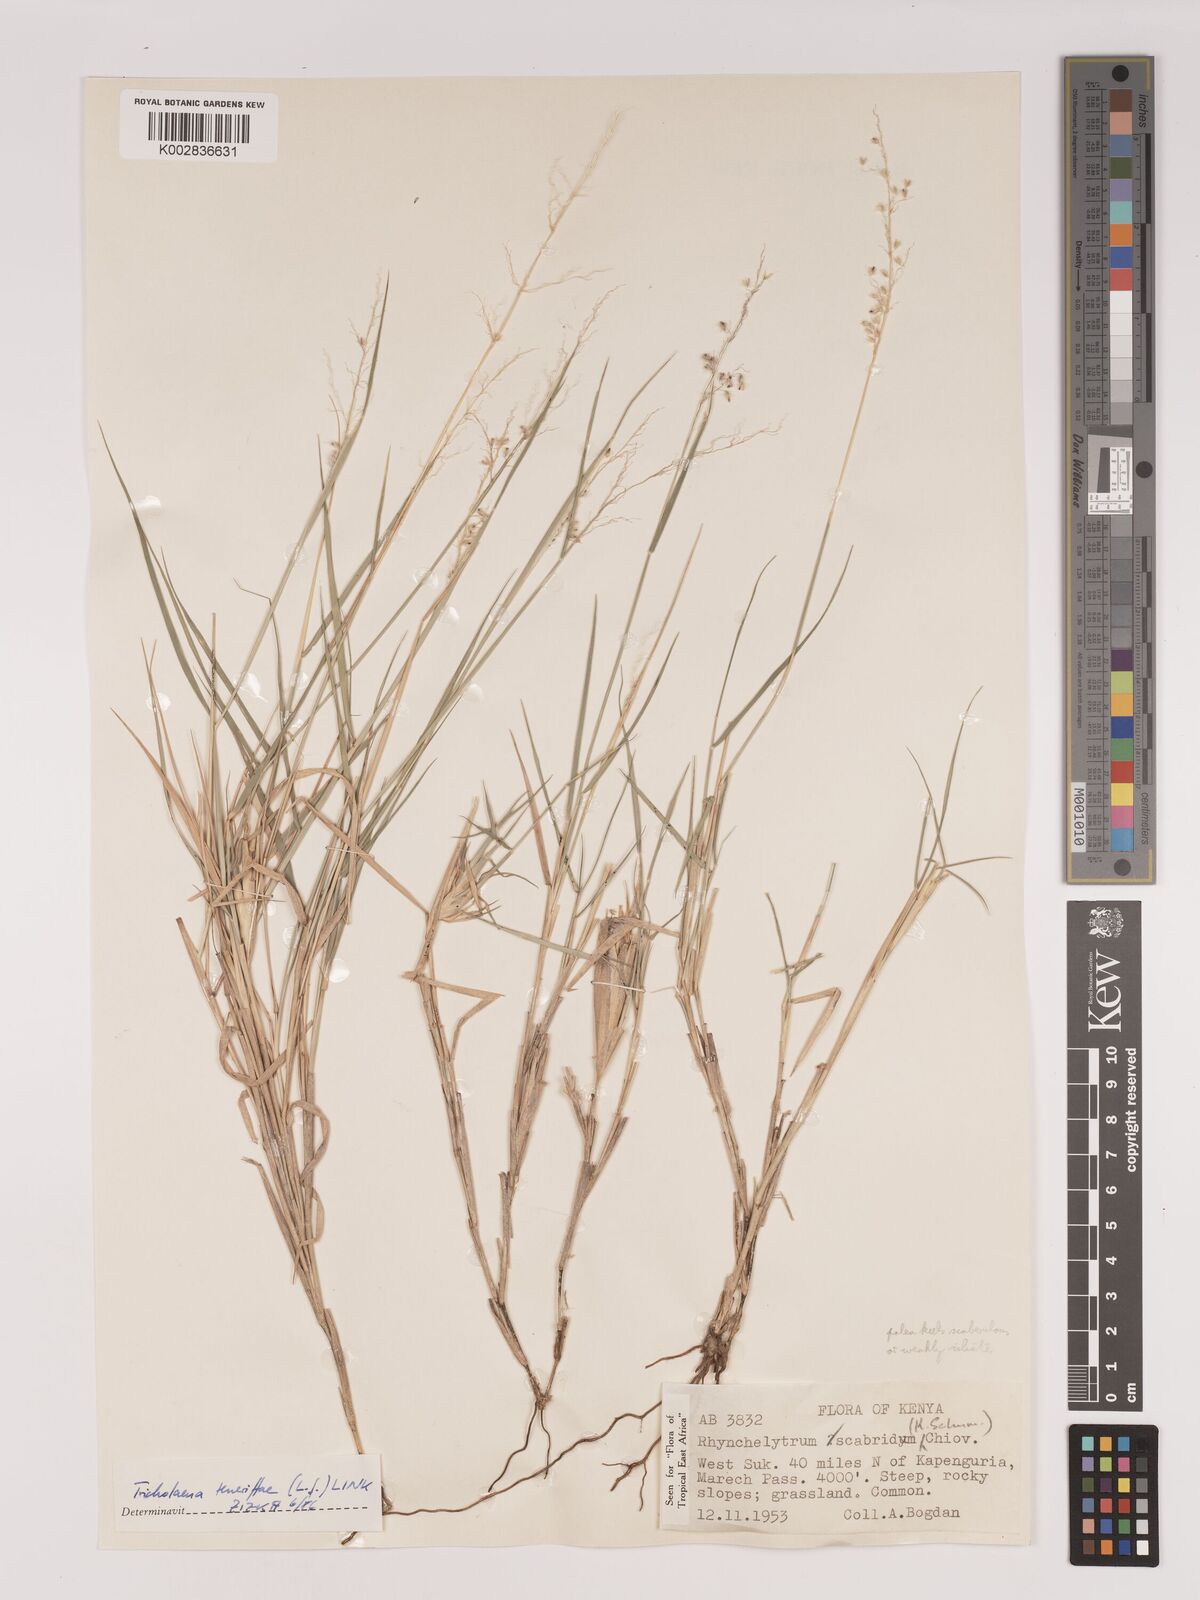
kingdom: Plantae
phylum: Tracheophyta
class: Liliopsida
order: Poales
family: Poaceae
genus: Tricholaena
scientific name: Tricholaena teneriffae
